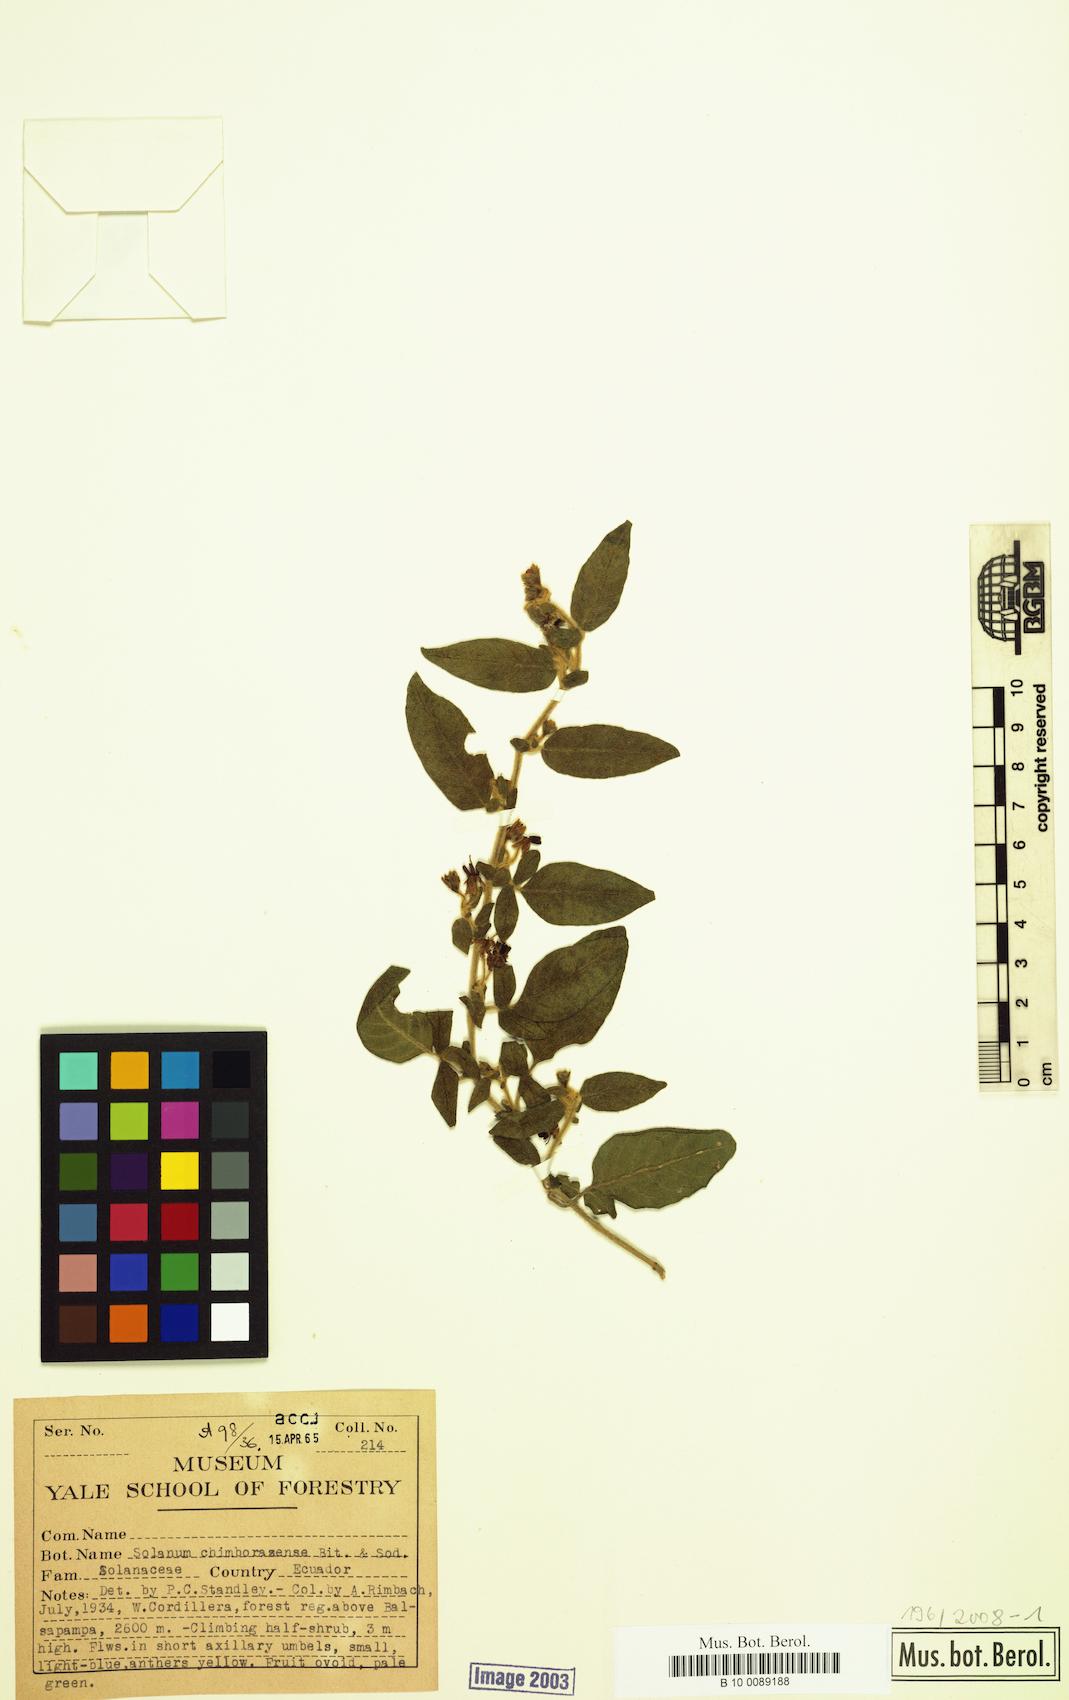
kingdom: Plantae
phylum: Tracheophyta
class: Magnoliopsida
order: Solanales
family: Solanaceae
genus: Solanum
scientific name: Solanum chimborazense
